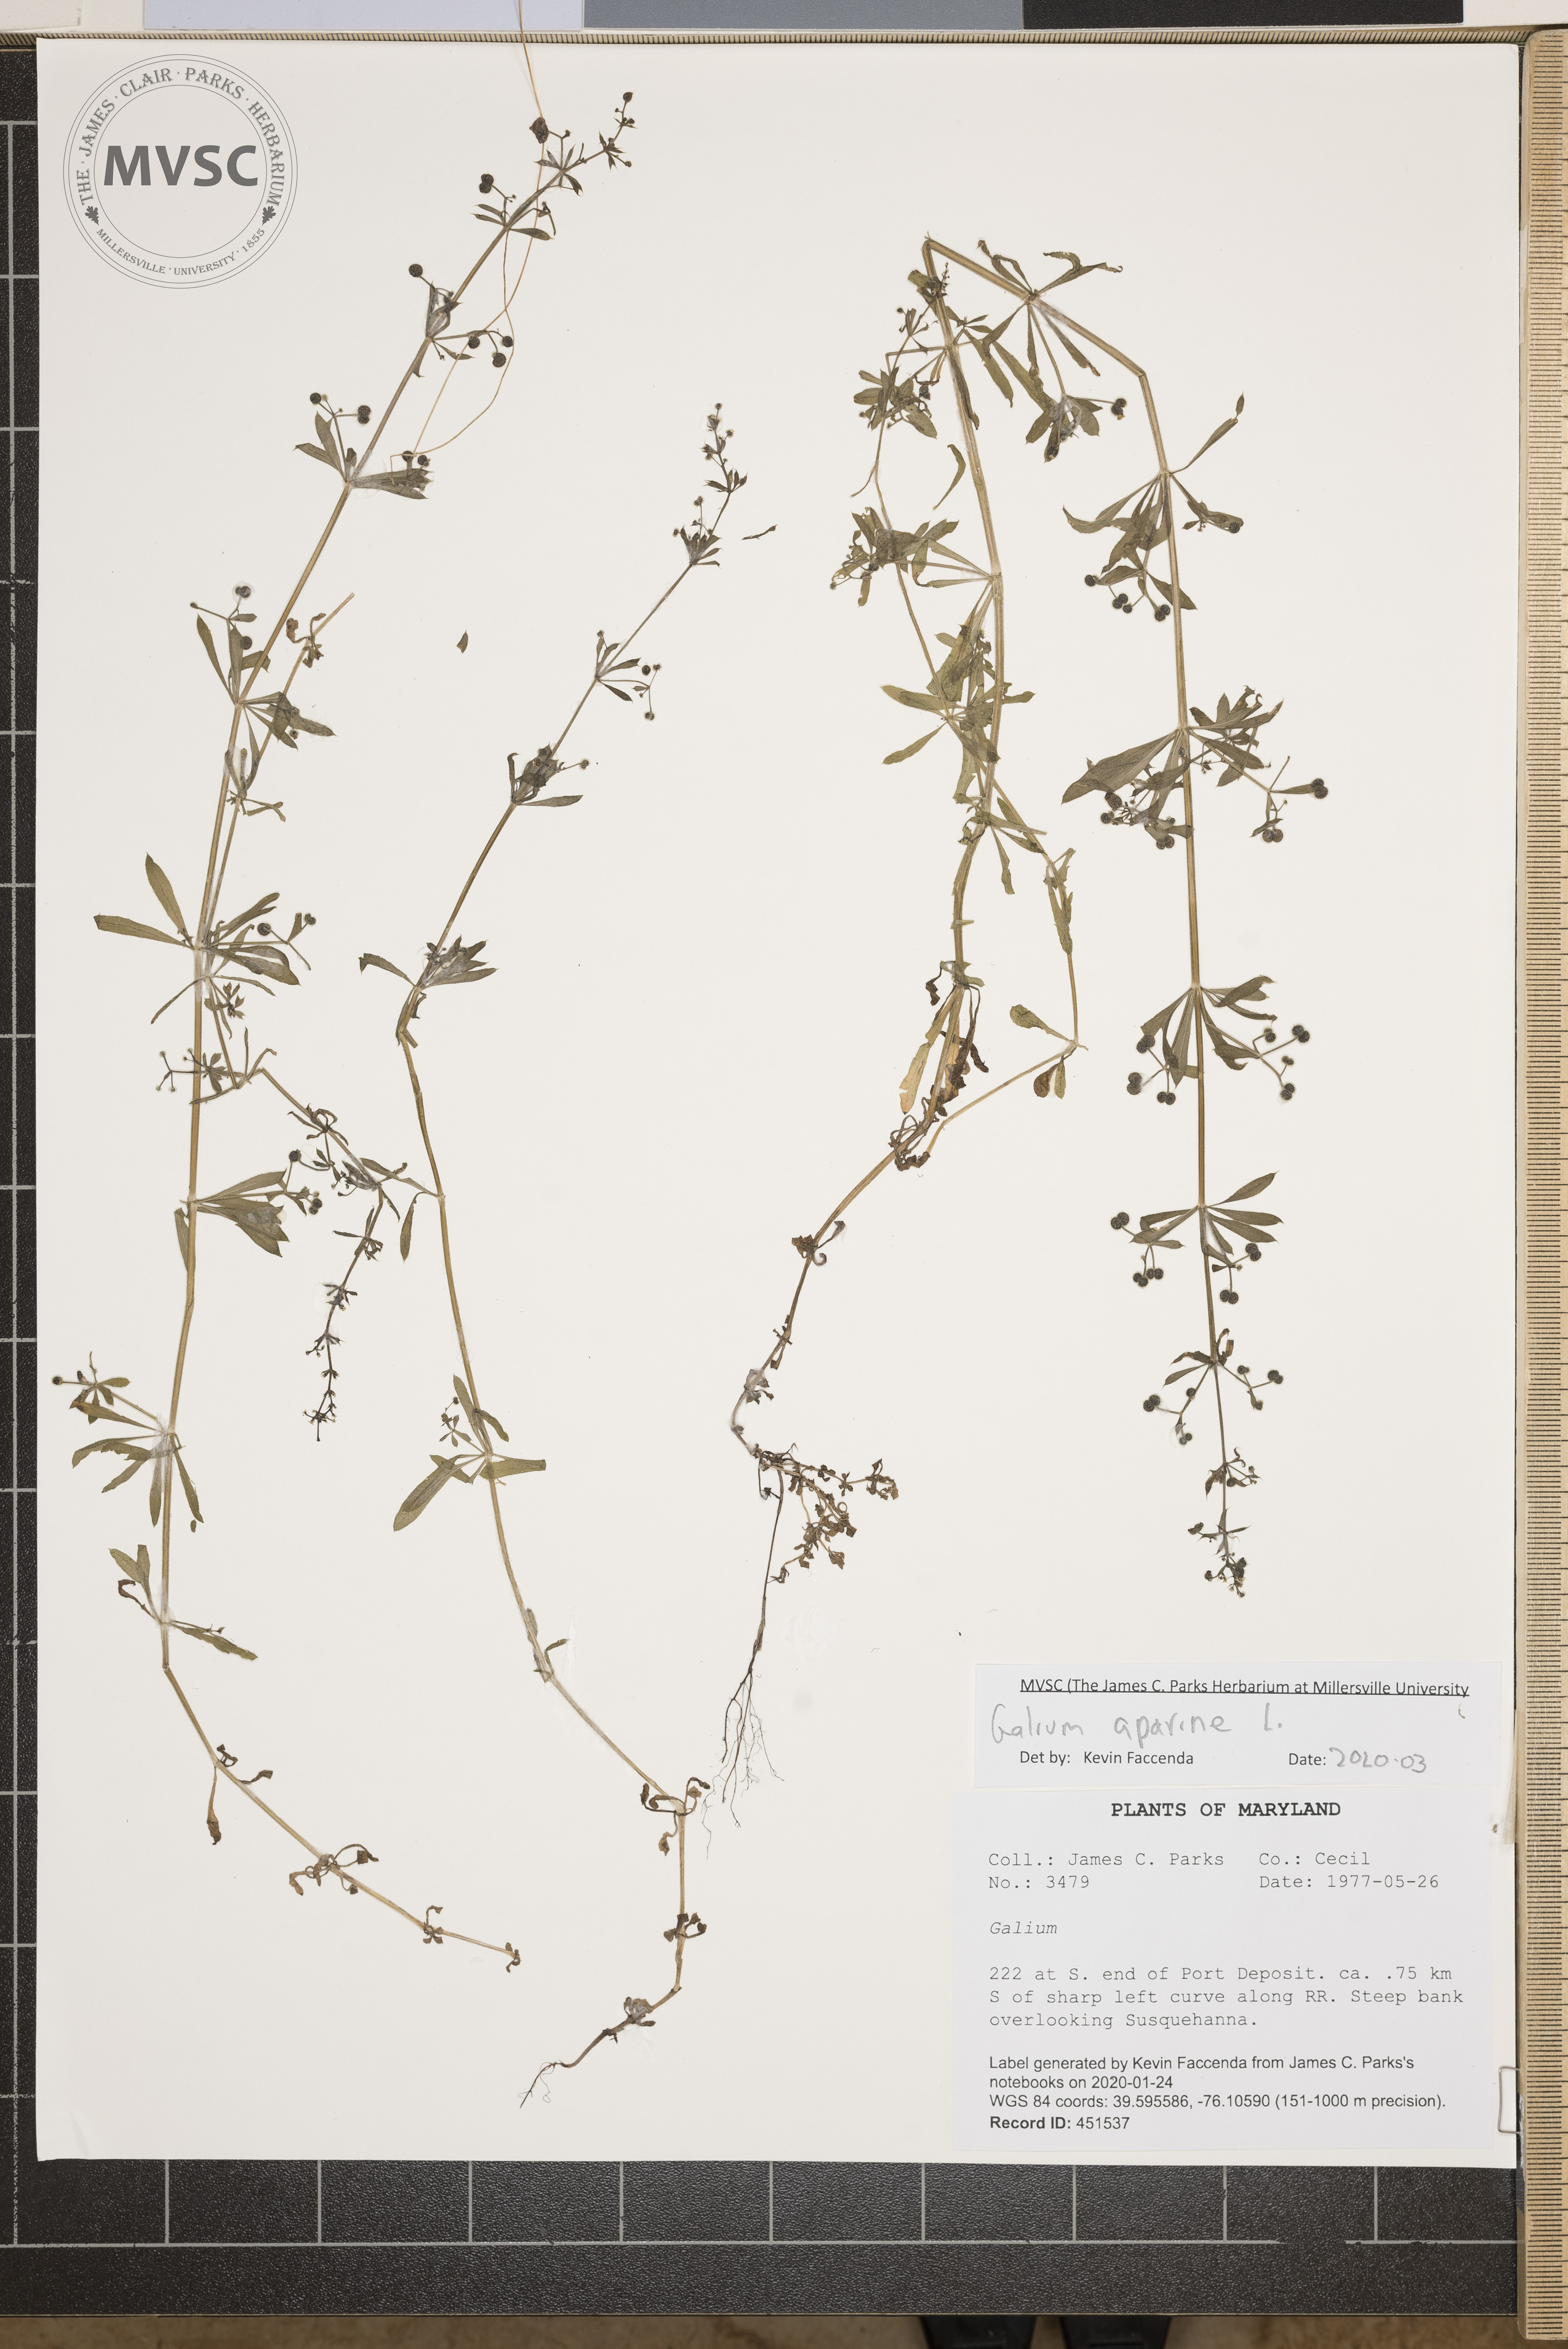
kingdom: Plantae
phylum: Tracheophyta
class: Magnoliopsida
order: Gentianales
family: Rubiaceae
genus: Galium
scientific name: Galium aparine
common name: Cleavers
